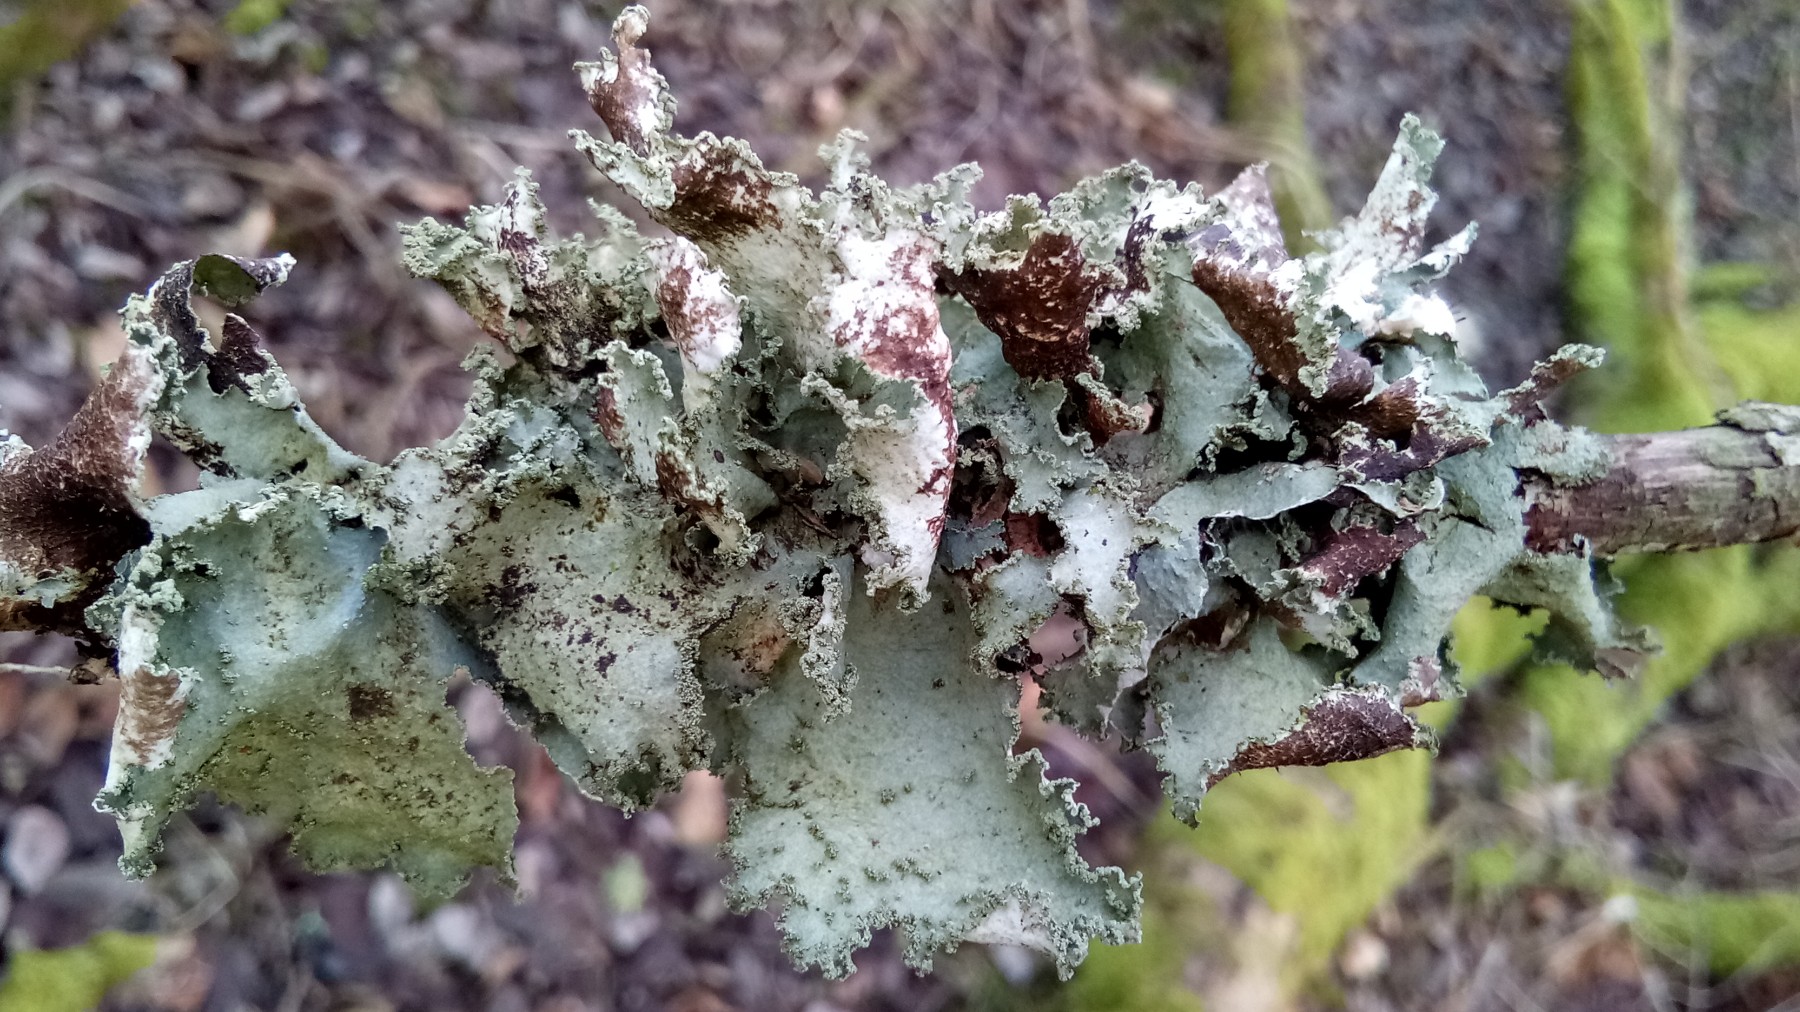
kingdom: Fungi
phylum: Ascomycota
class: Lecanoromycetes
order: Lecanorales
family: Parmeliaceae
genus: Platismatia
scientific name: Platismatia glauca
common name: blågrå papirlav
